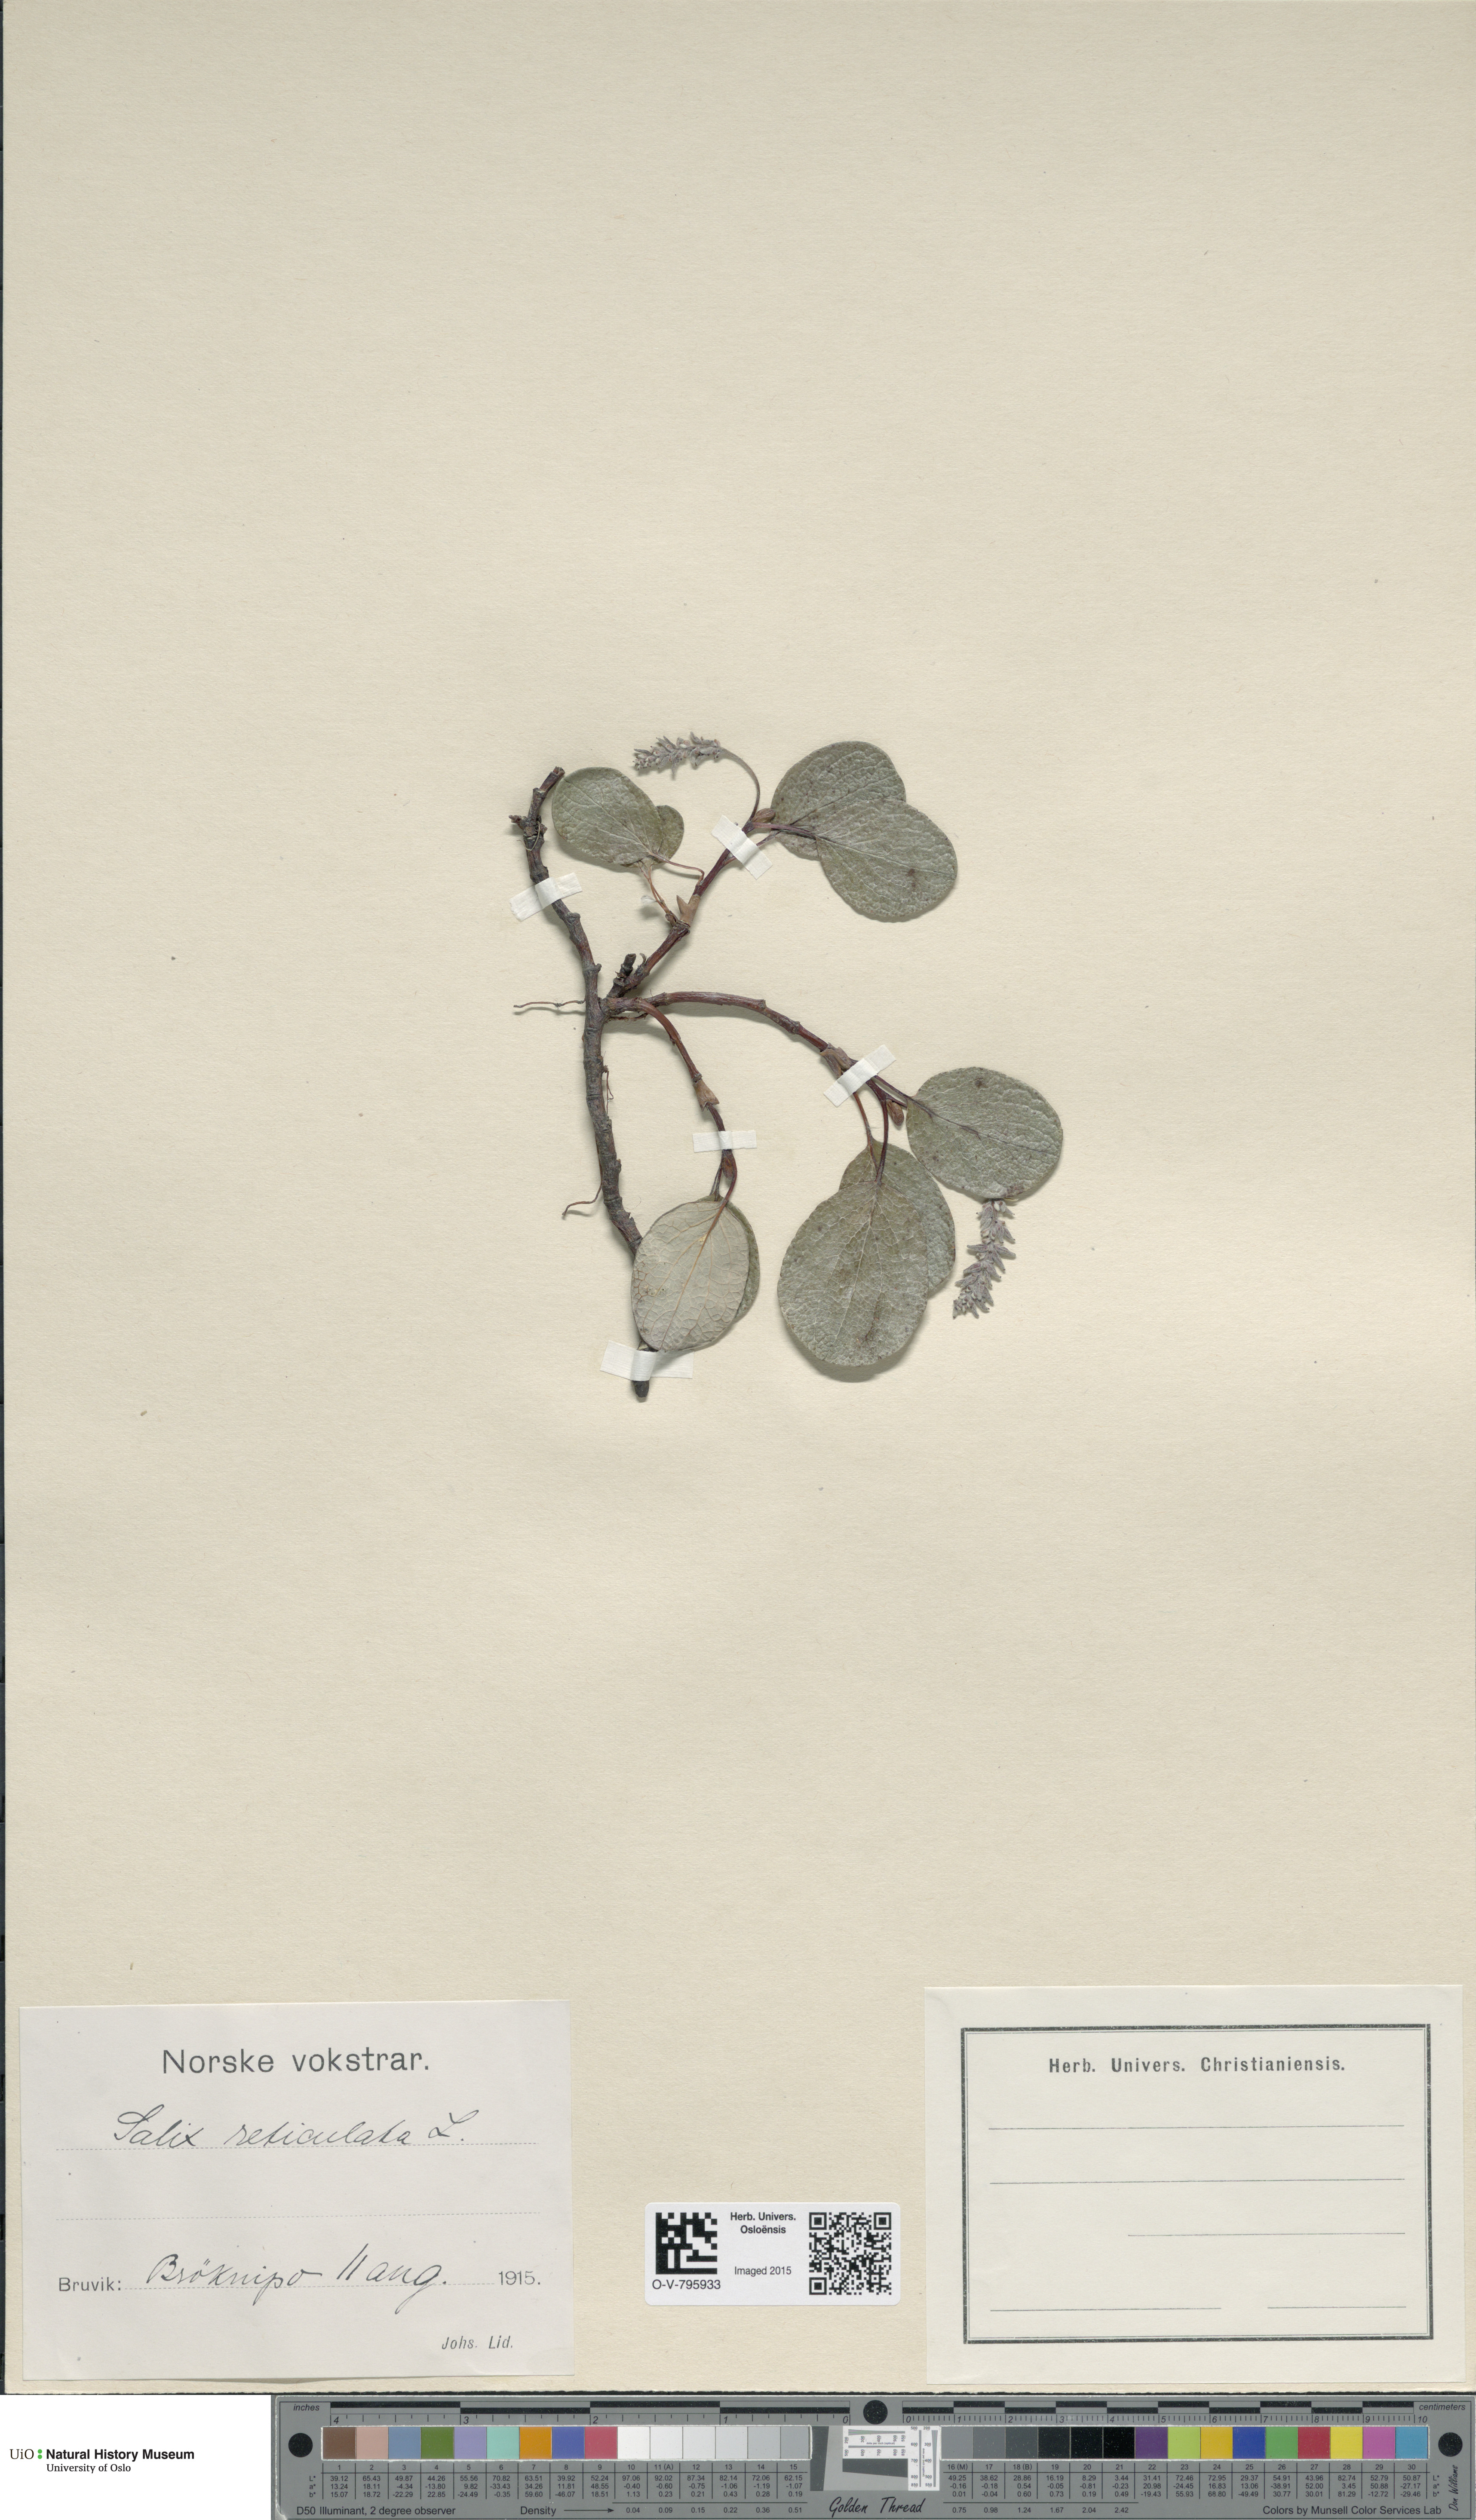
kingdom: Plantae
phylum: Tracheophyta
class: Magnoliopsida
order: Malpighiales
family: Salicaceae
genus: Salix
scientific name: Salix reticulata
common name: Net-leaved willow
